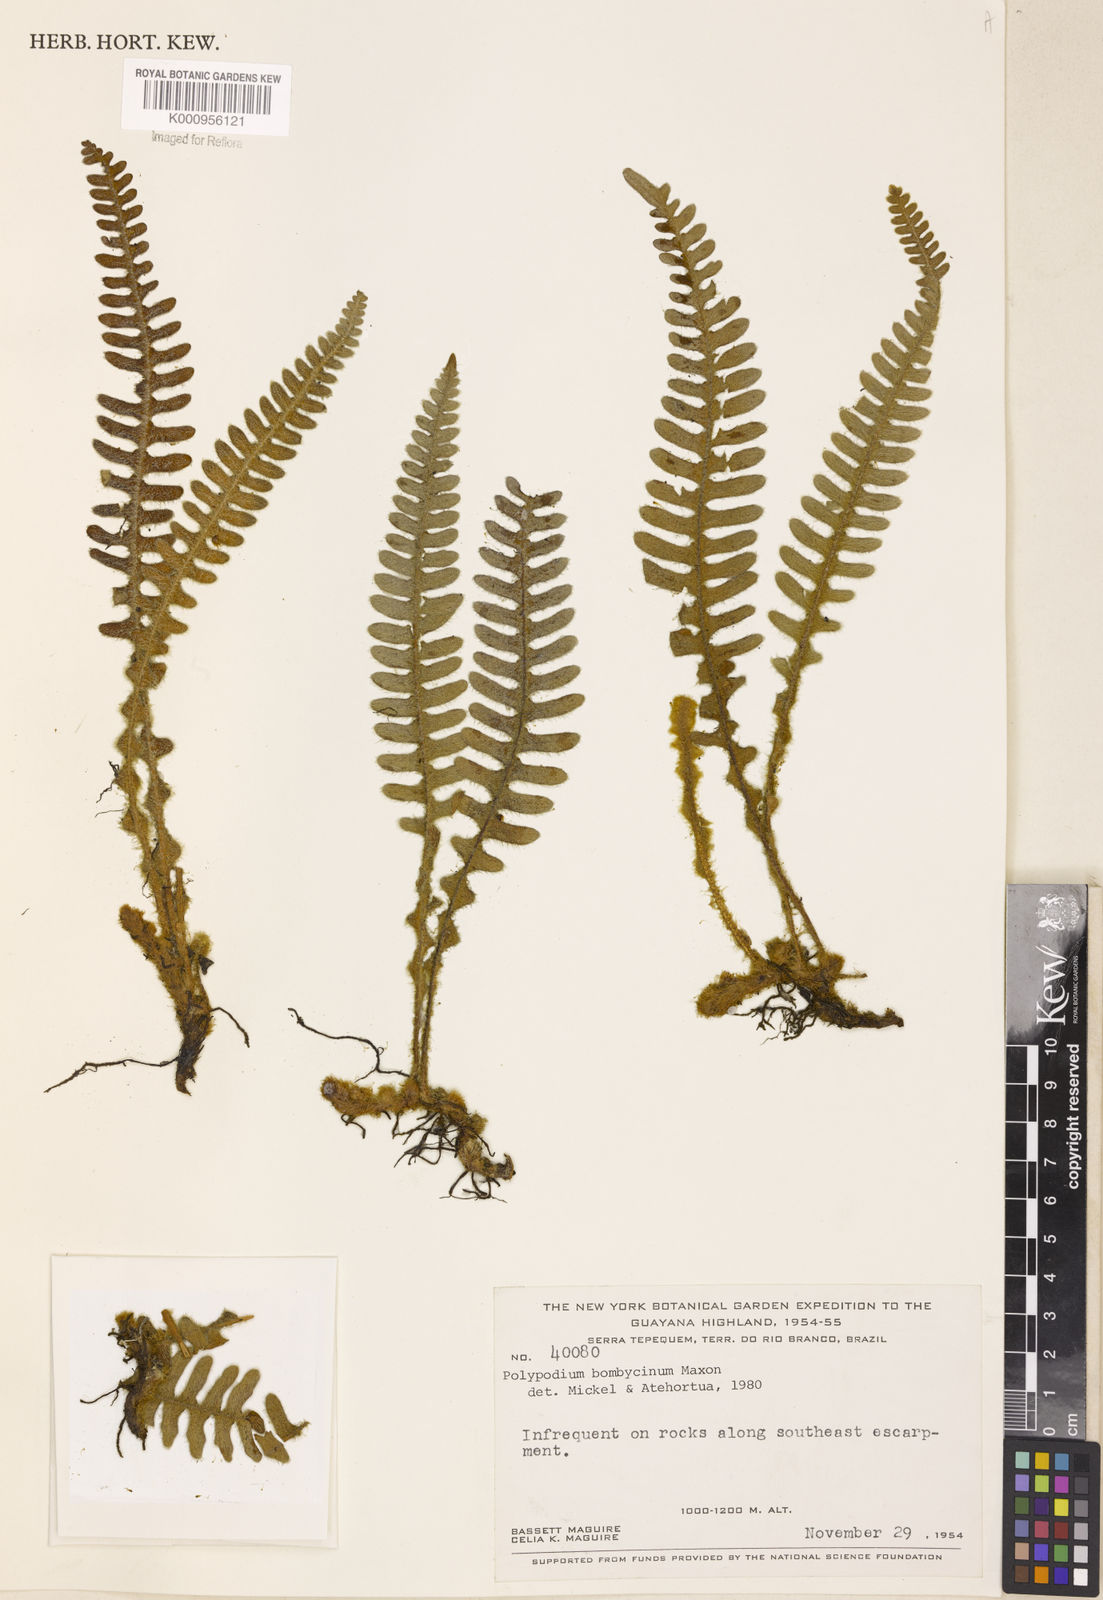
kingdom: Plantae
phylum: Tracheophyta
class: Polypodiopsida
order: Polypodiales
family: Polypodiaceae
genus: Pleopeltis
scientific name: Pleopeltis bombycina
